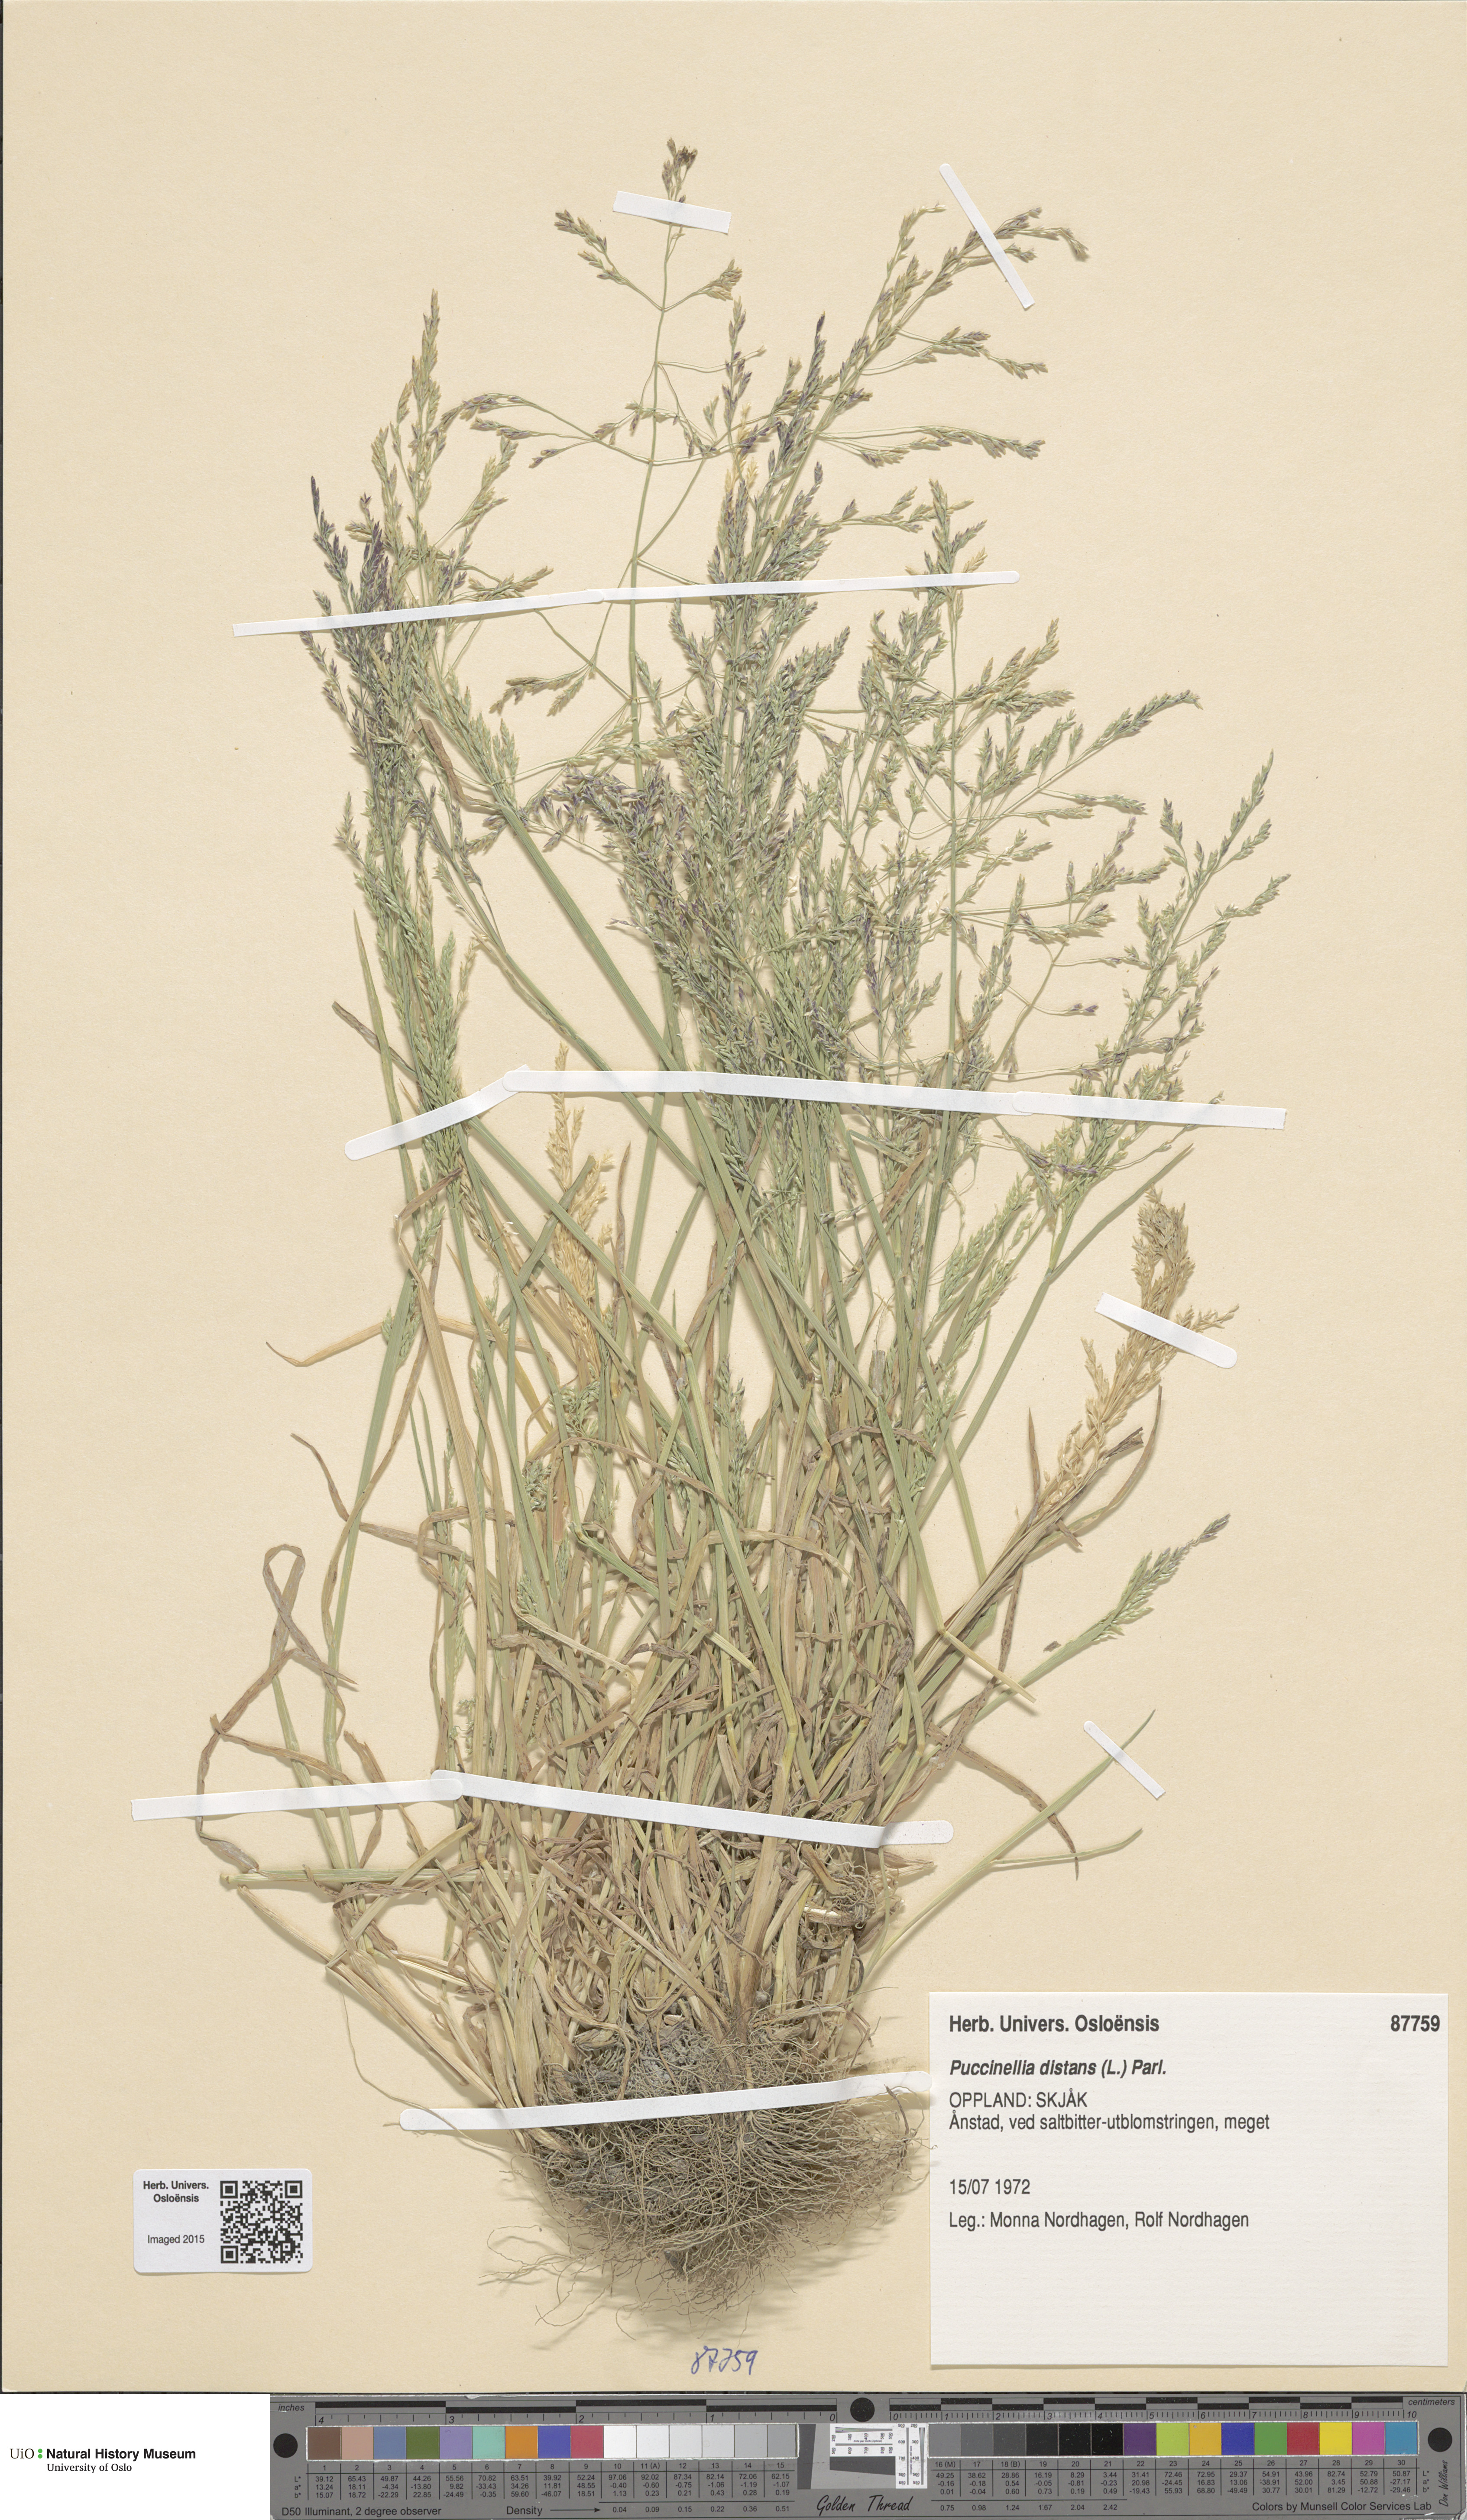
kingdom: Plantae
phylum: Tracheophyta
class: Liliopsida
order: Poales
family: Poaceae
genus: Puccinellia
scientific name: Puccinellia distans
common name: Weeping alkaligrass
